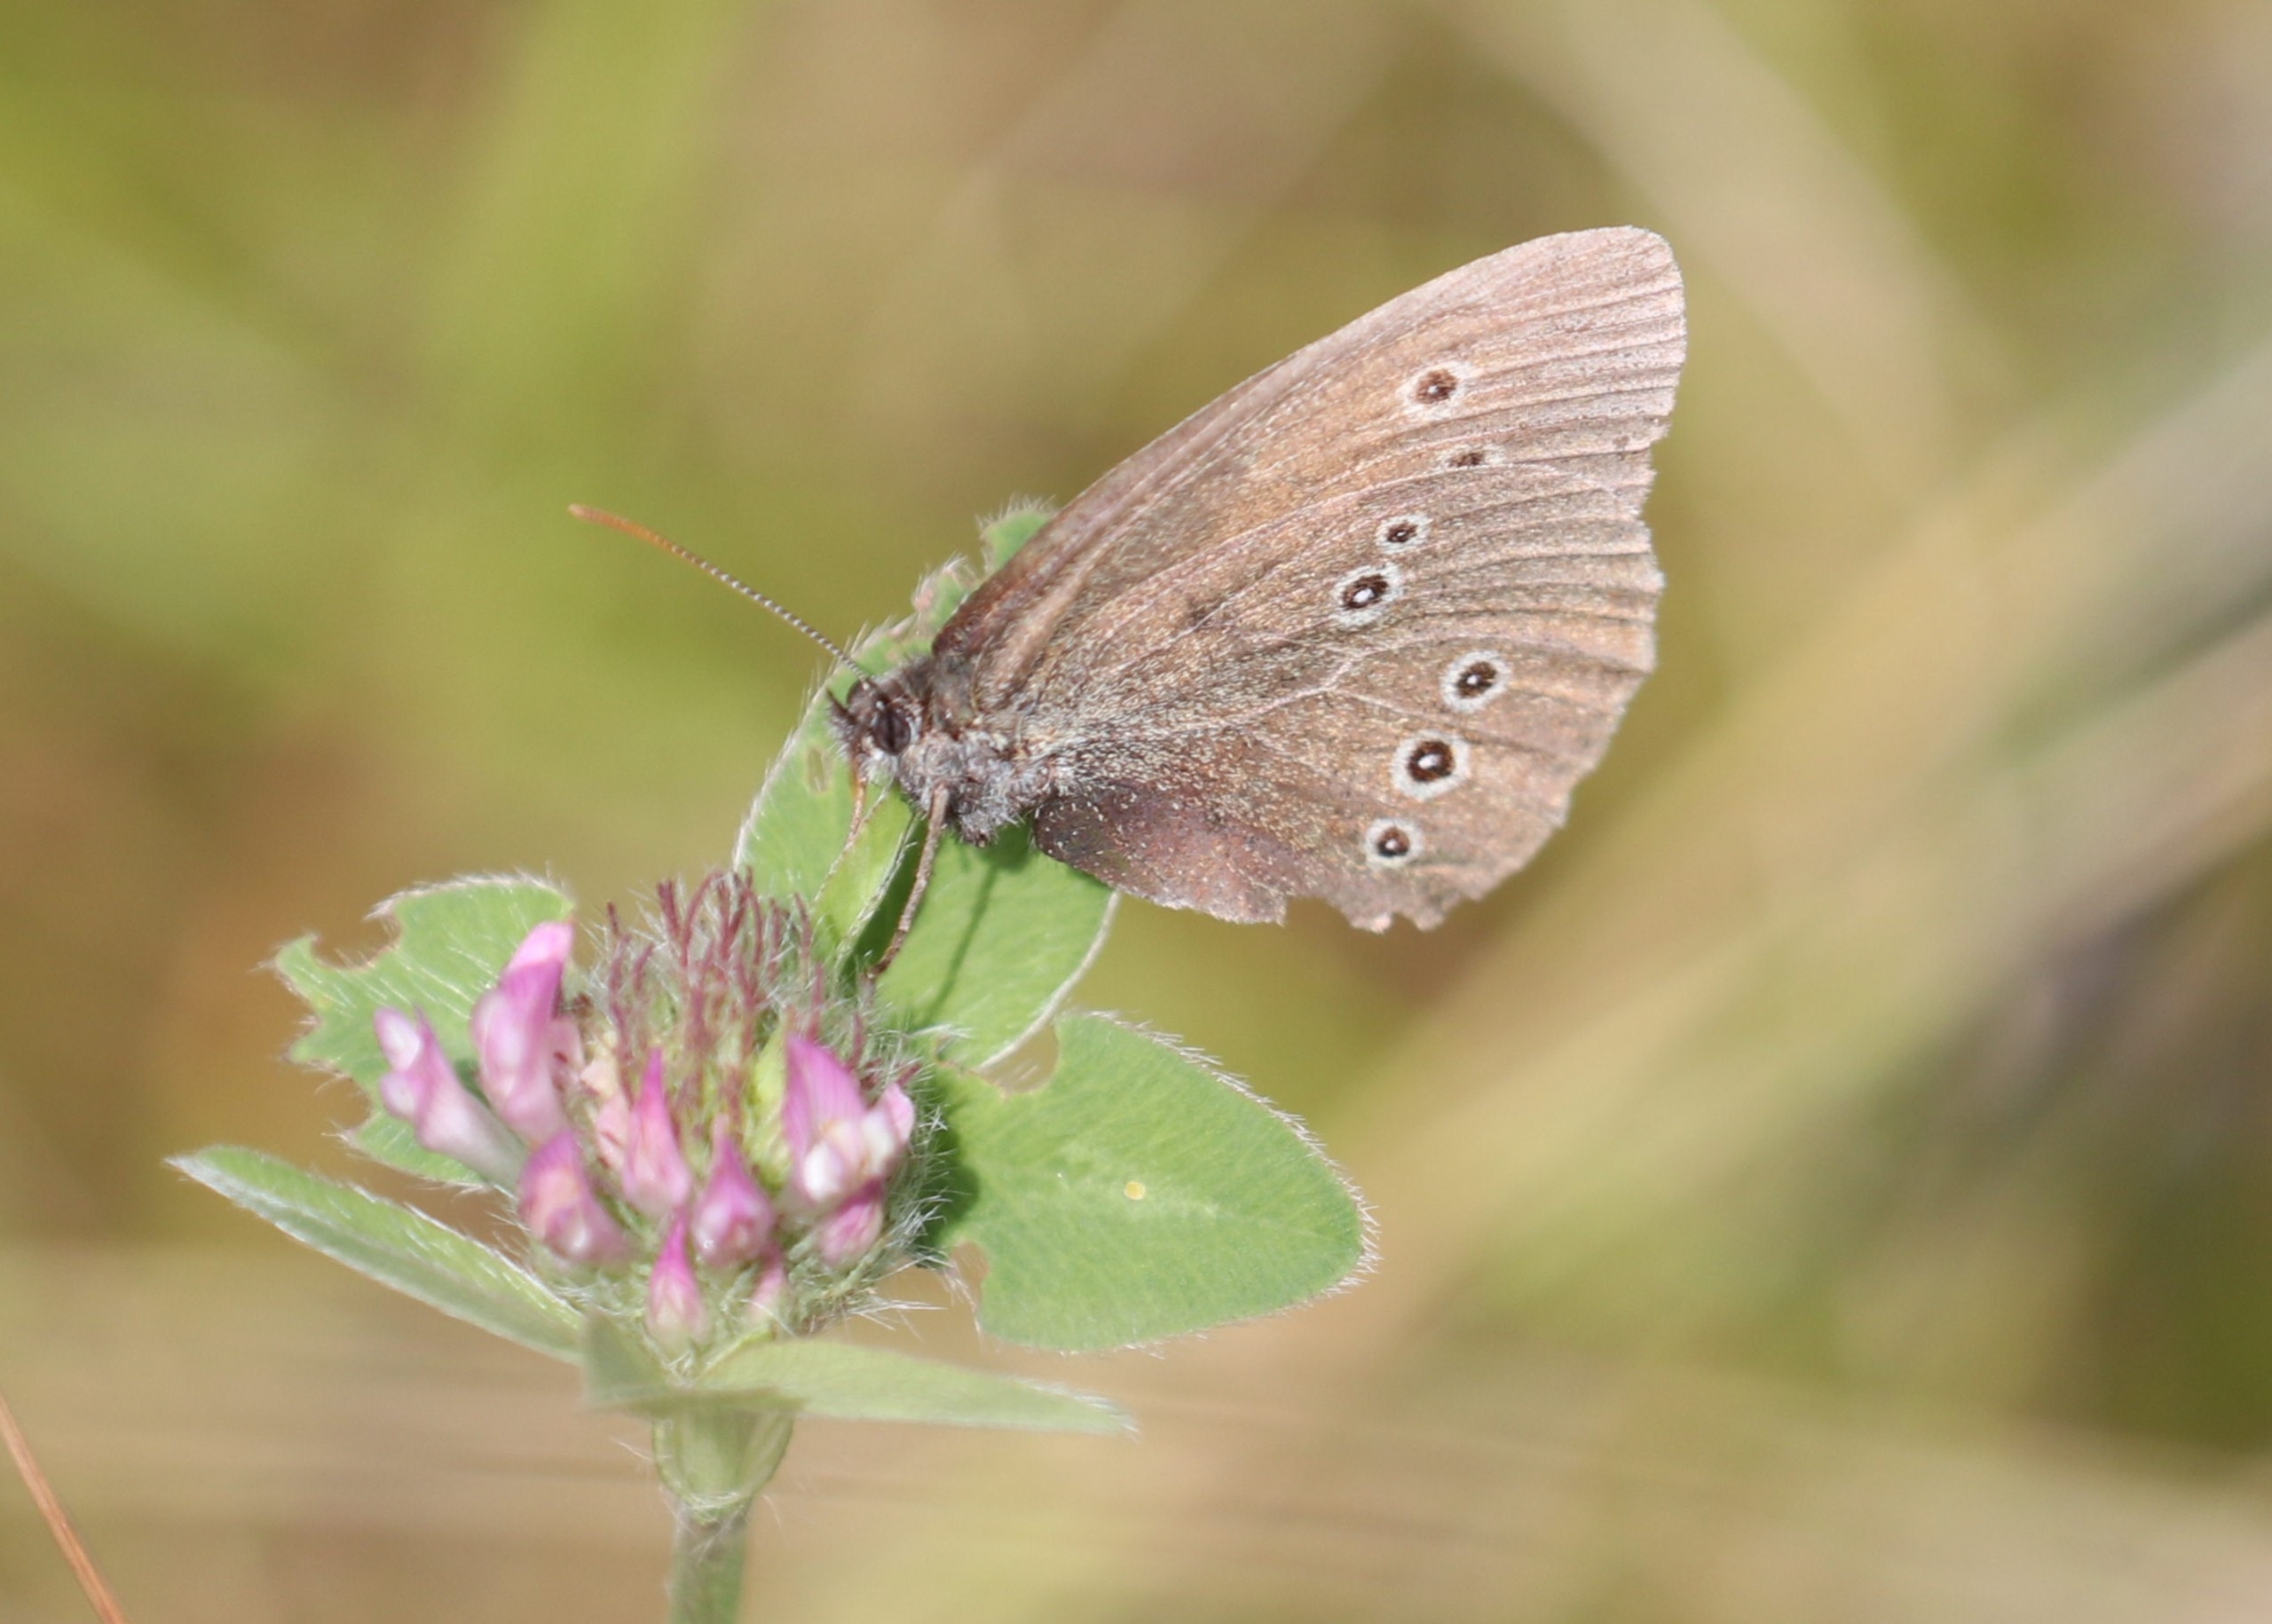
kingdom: Animalia
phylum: Arthropoda
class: Insecta
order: Lepidoptera
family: Nymphalidae
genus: Aphantopus
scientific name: Aphantopus hyperantus
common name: Engrandøje
